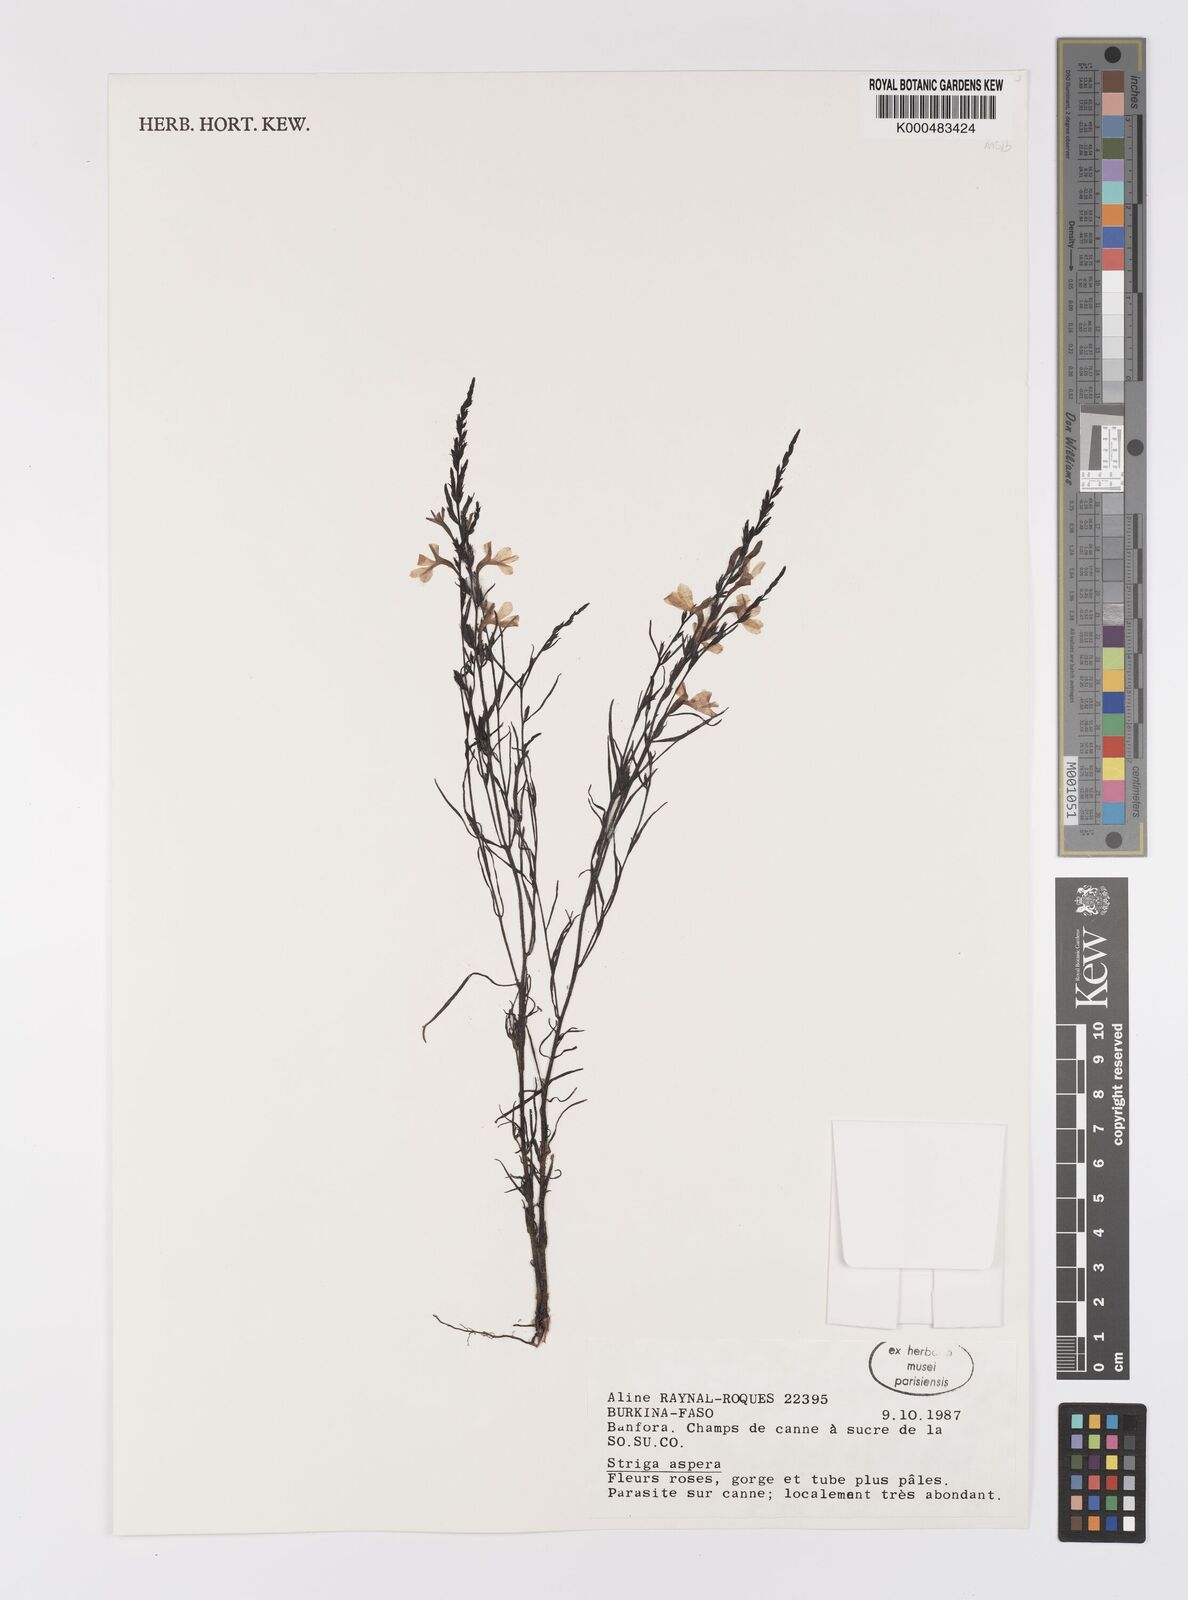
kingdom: Plantae
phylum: Tracheophyta
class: Magnoliopsida
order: Lamiales
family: Orobanchaceae
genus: Striga
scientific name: Striga aspera
